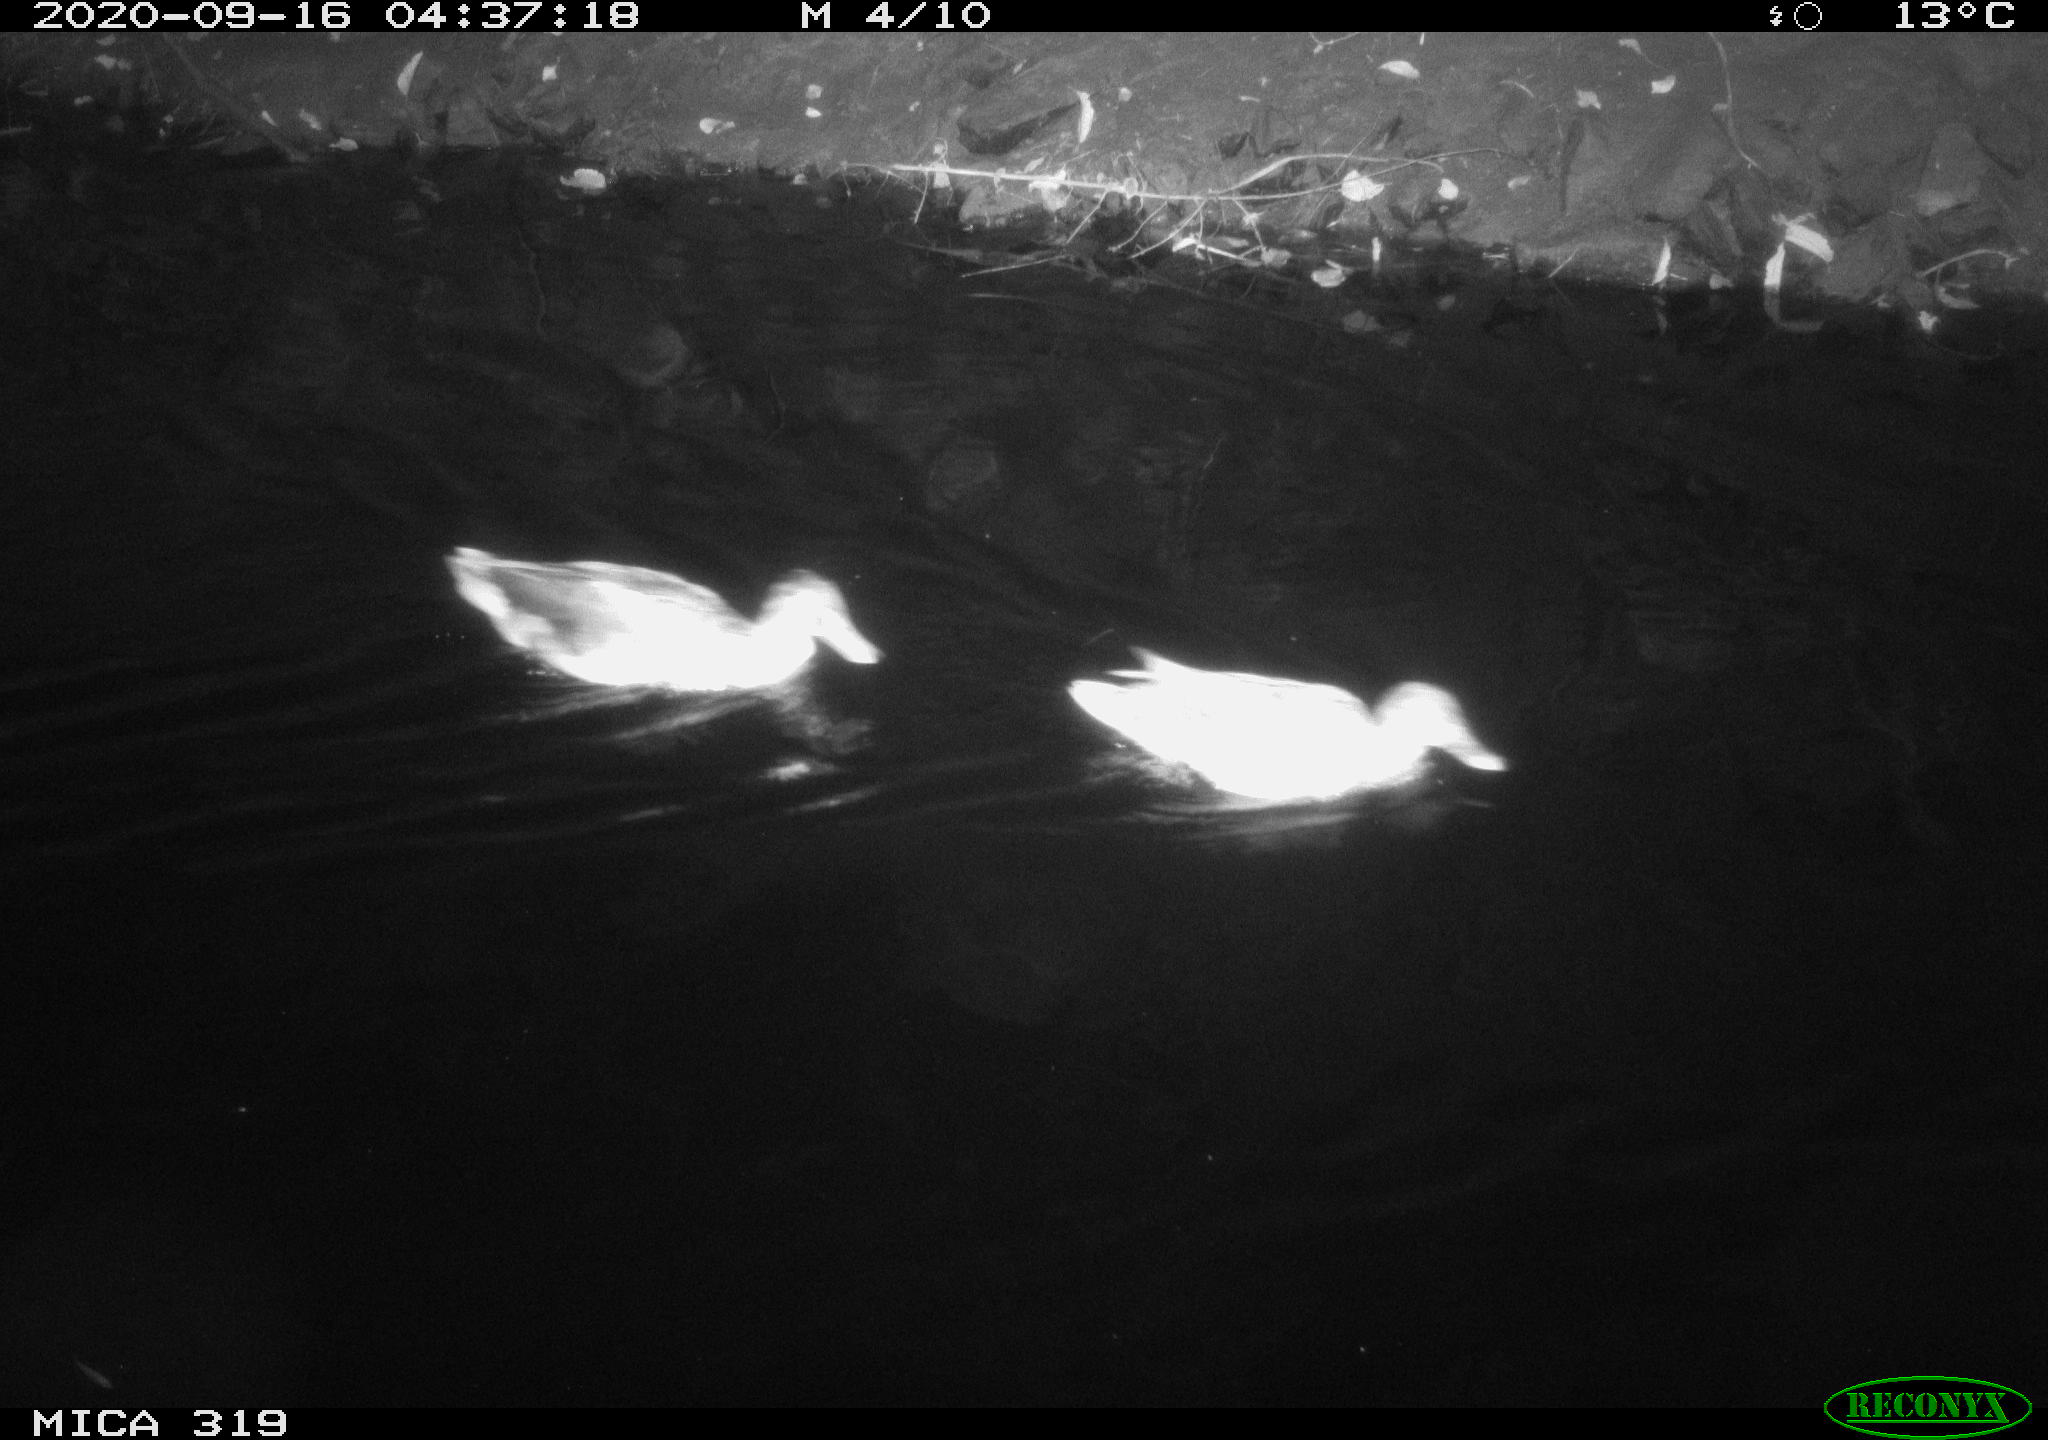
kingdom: Animalia
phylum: Chordata
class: Aves
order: Anseriformes
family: Anatidae
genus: Anas
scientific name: Anas platyrhynchos
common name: Mallard
